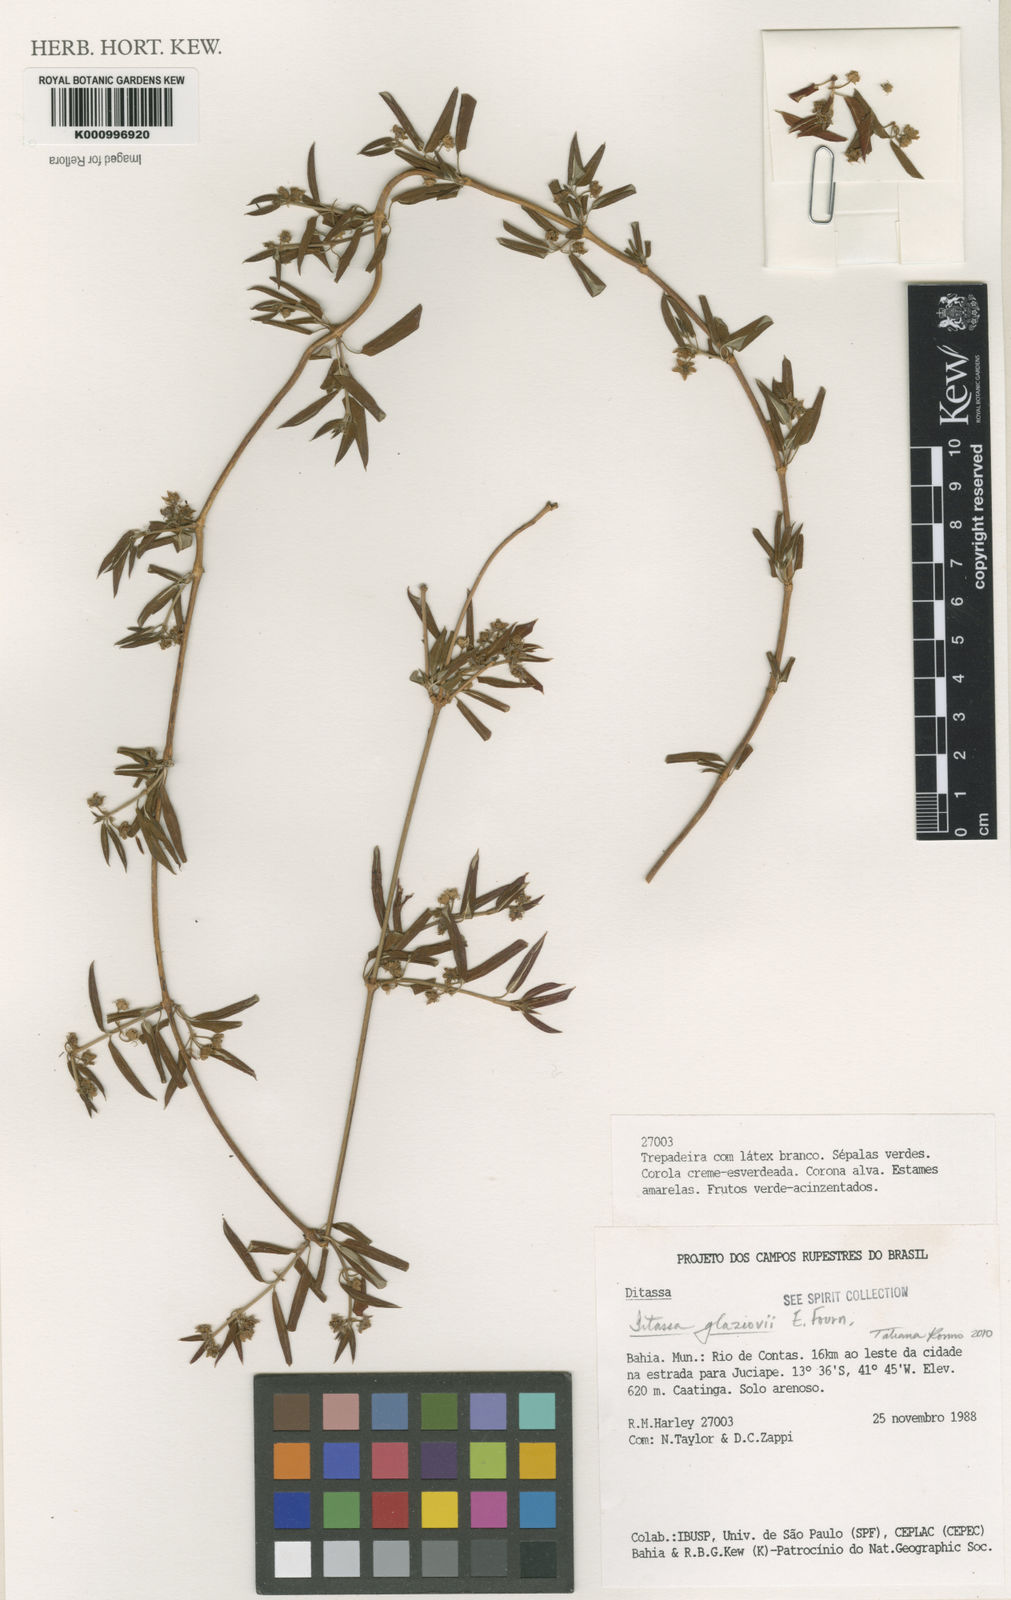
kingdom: Plantae
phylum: Tracheophyta
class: Magnoliopsida
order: Gentianales
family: Apocynaceae
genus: Ditassa
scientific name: Ditassa
